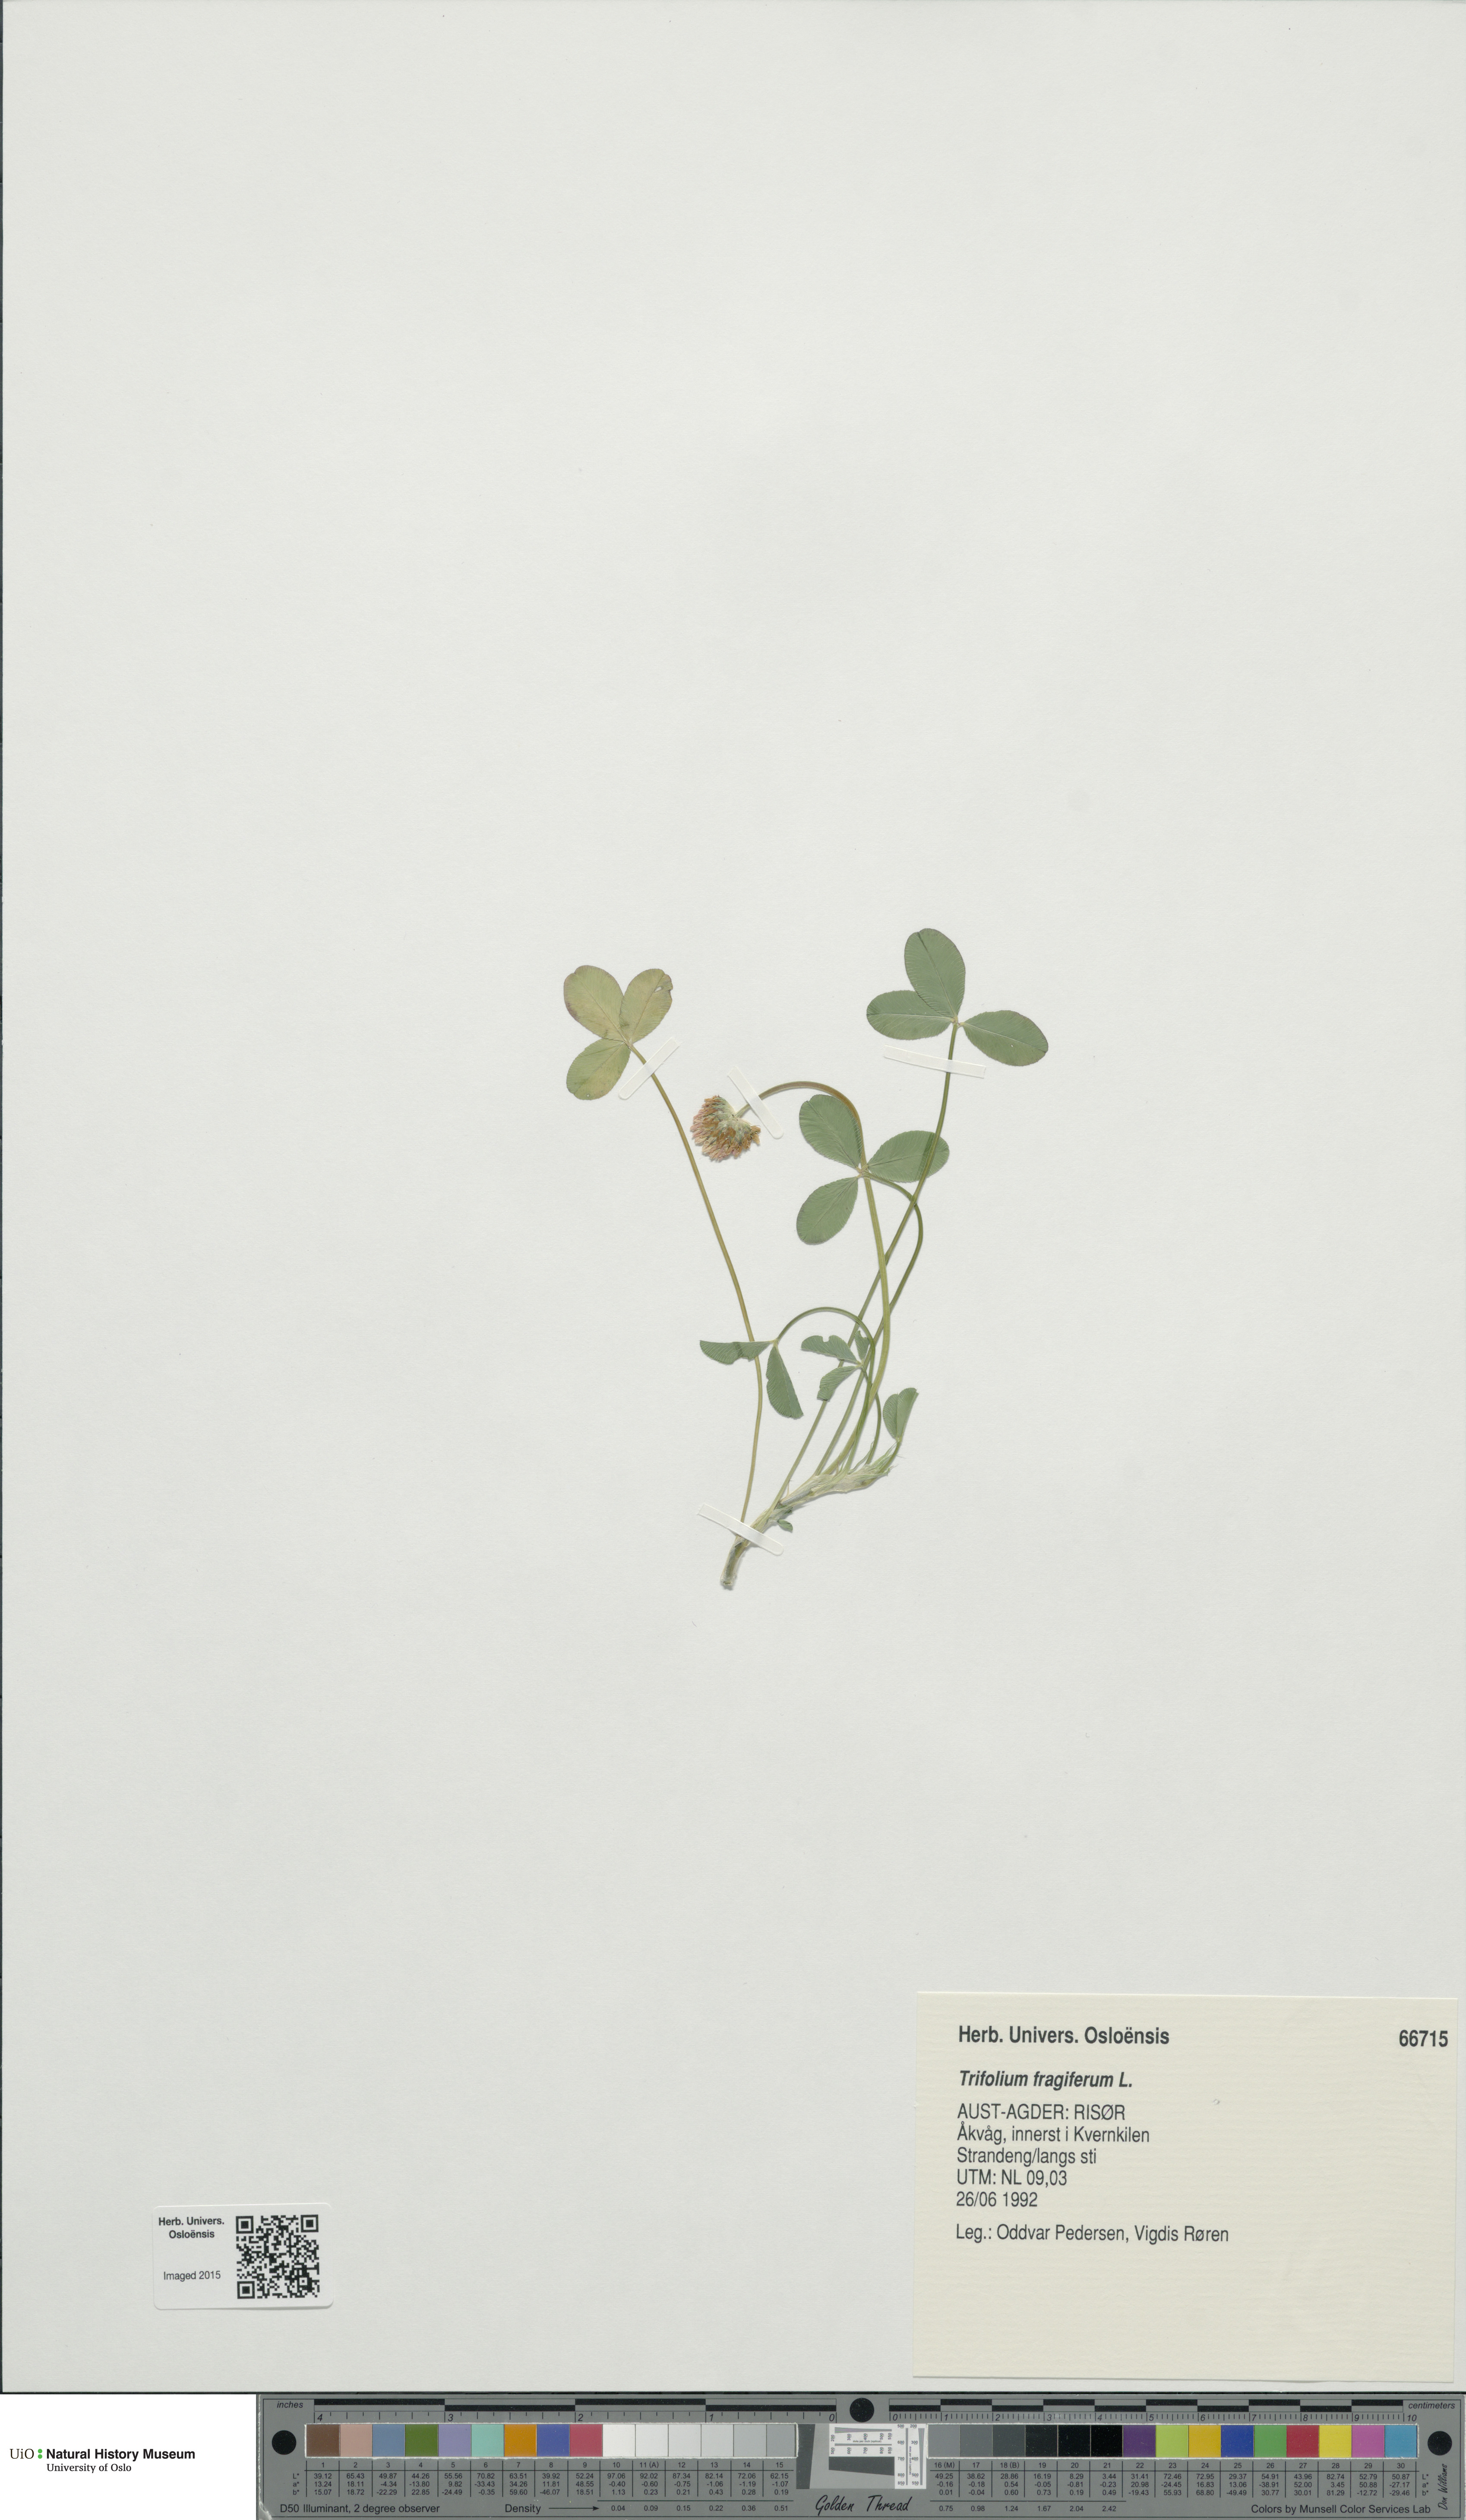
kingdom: Plantae
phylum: Tracheophyta
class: Magnoliopsida
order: Fabales
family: Fabaceae
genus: Trifolium
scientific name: Trifolium fragiferum
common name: Strawberry clover
